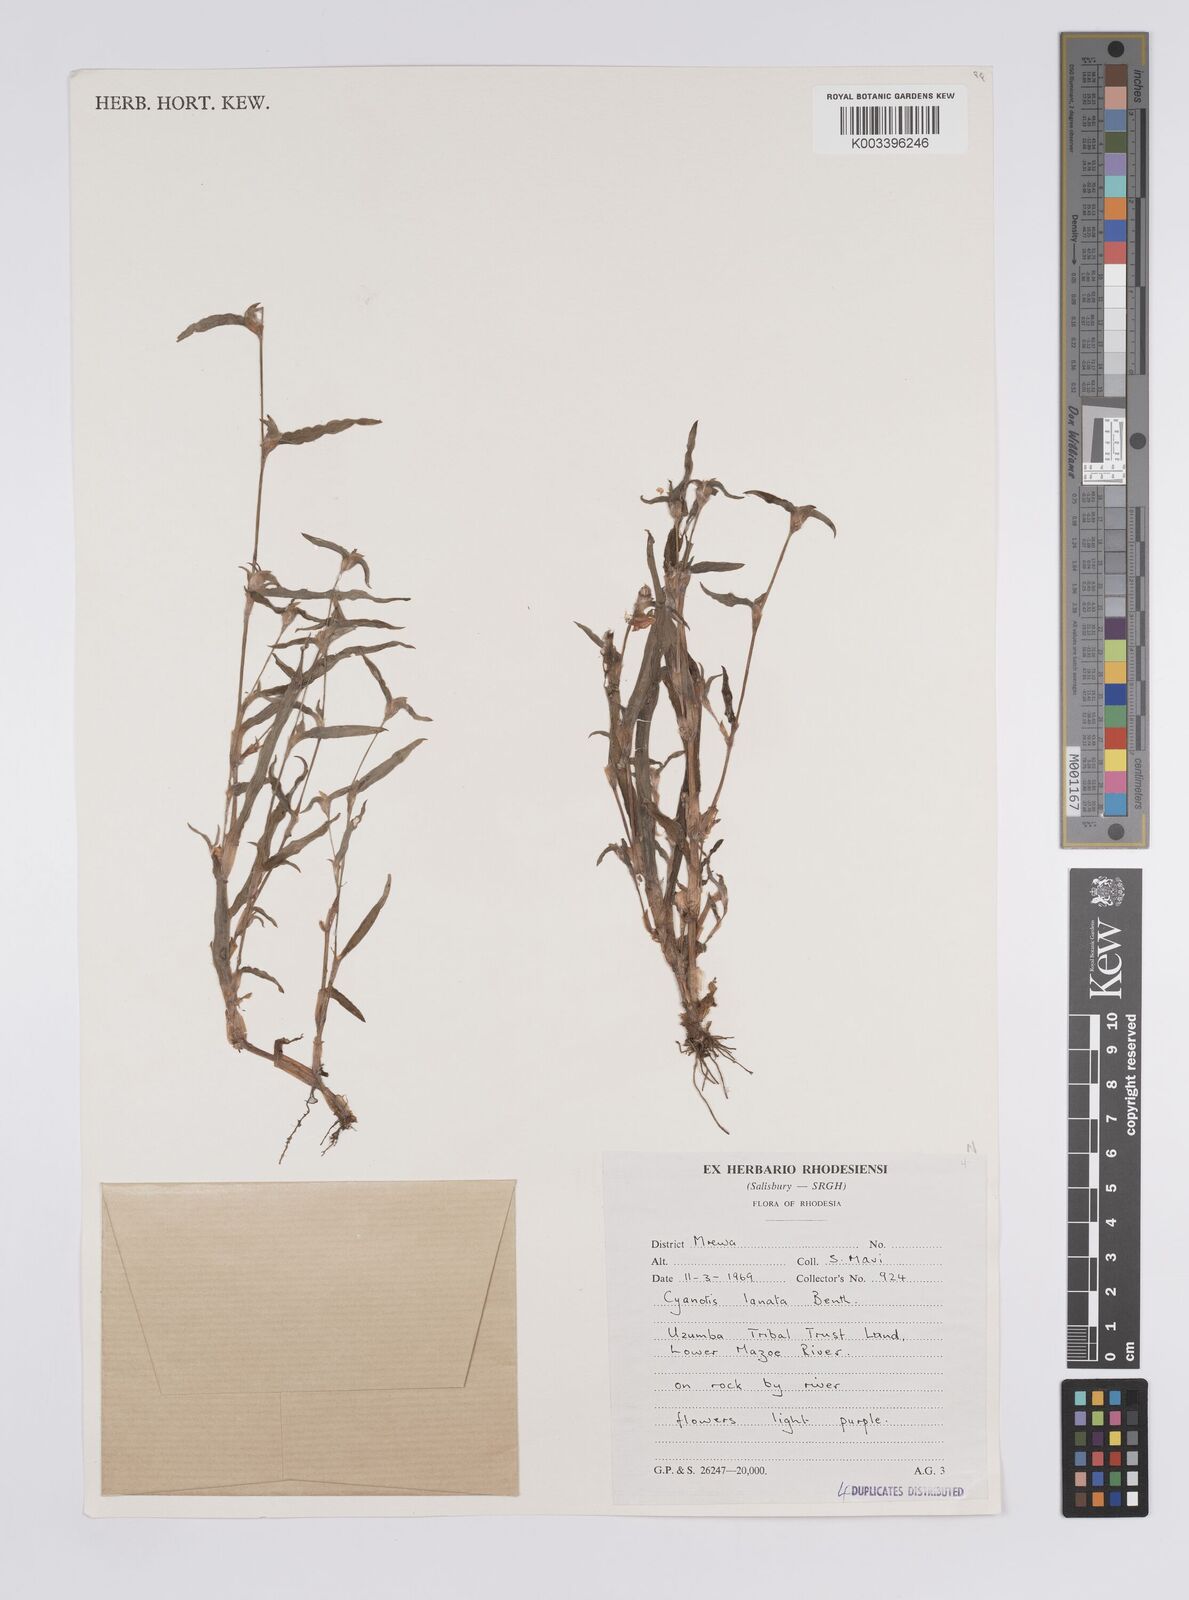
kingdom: Plantae
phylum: Tracheophyta
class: Liliopsida
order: Commelinales
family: Commelinaceae
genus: Cyanotis
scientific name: Cyanotis lanata
